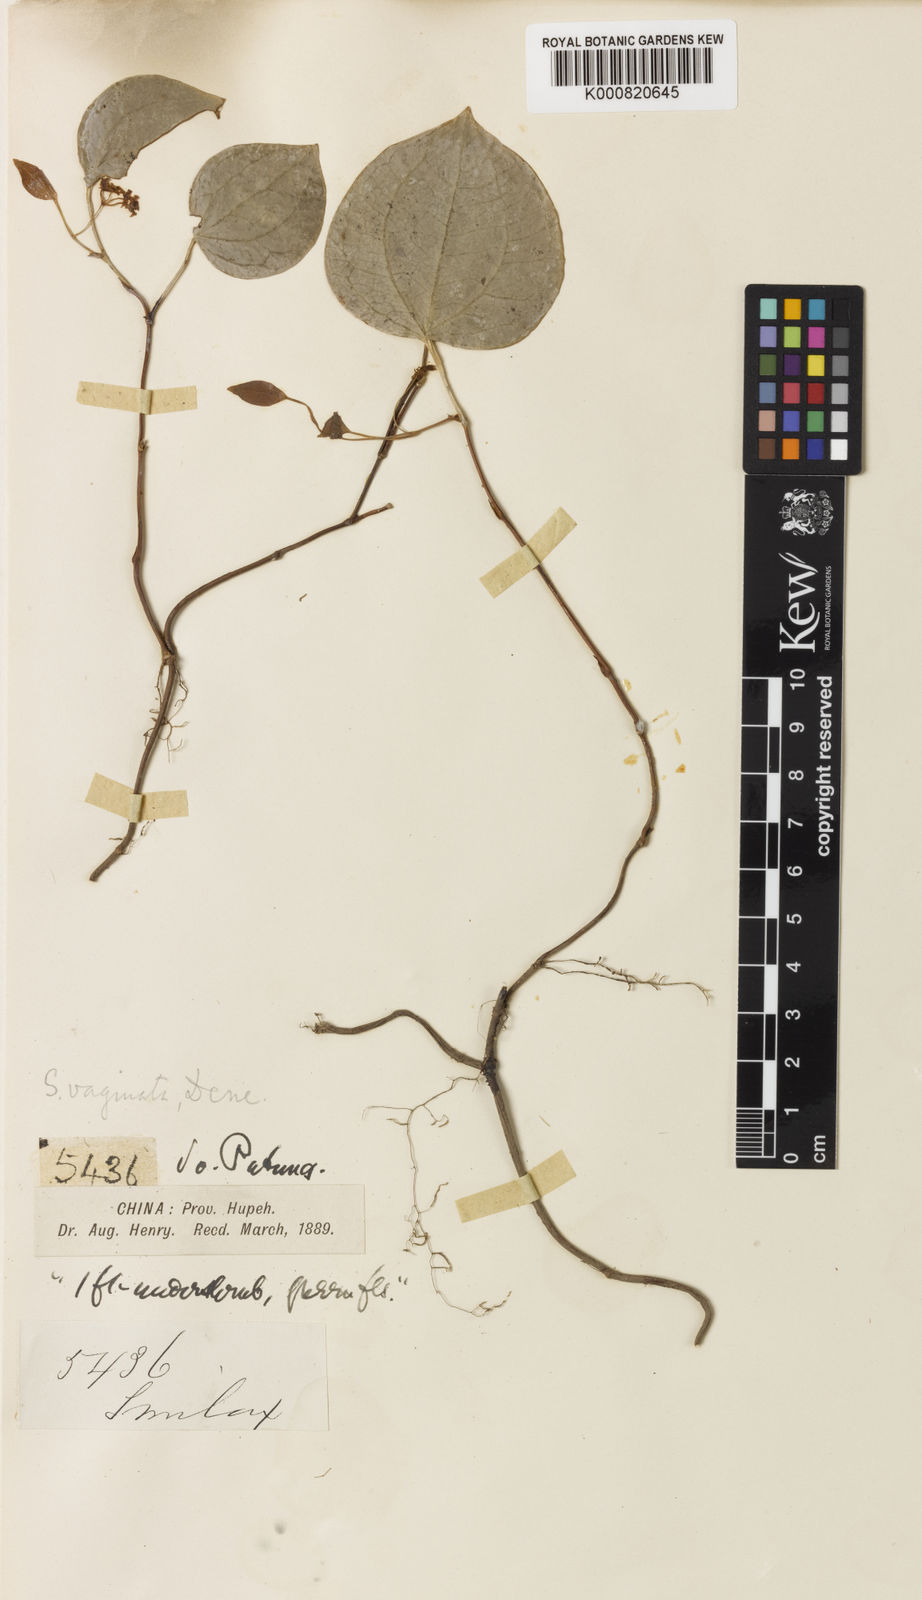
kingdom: Plantae
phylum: Tracheophyta
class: Liliopsida
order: Liliales
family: Smilacaceae
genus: Smilax
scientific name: Smilax pachysandroides
